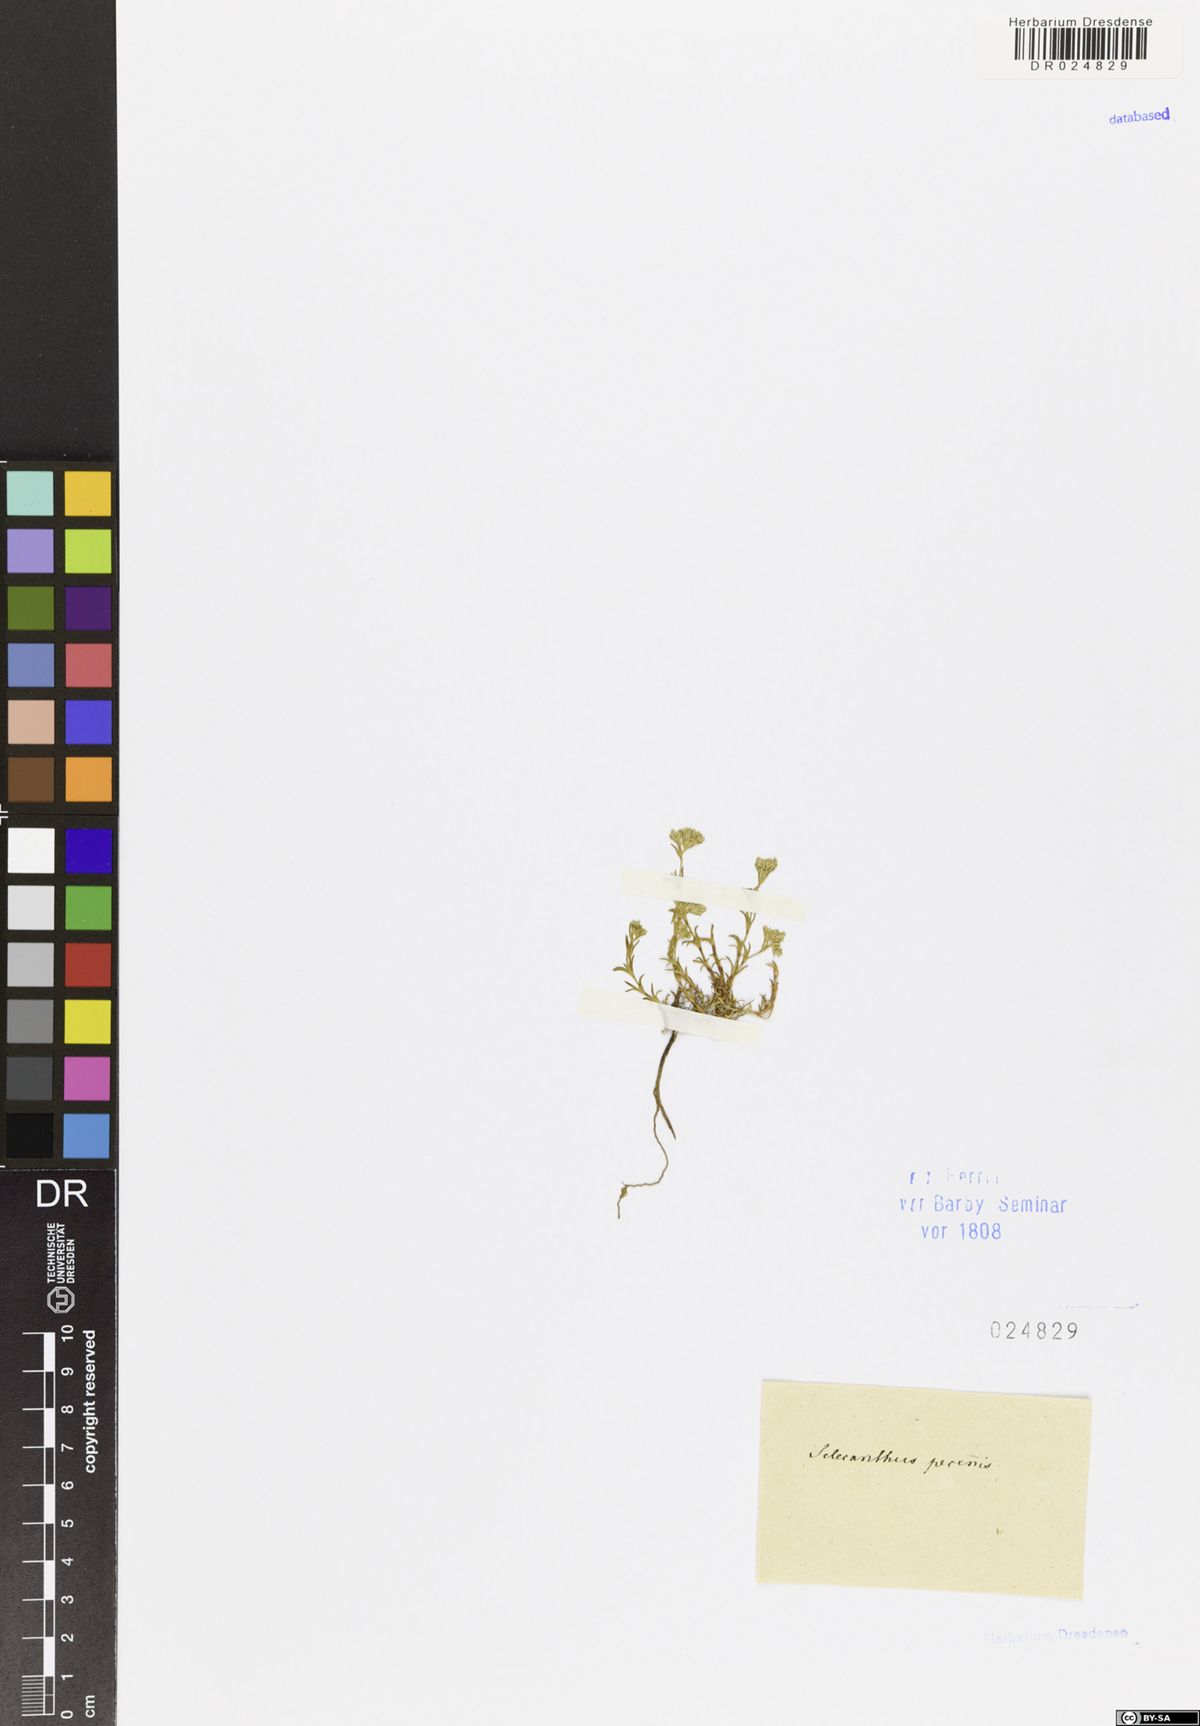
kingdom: Plantae
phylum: Tracheophyta
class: Magnoliopsida
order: Caryophyllales
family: Caryophyllaceae
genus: Scleranthus
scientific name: Scleranthus perennis
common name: Perennial knawel
